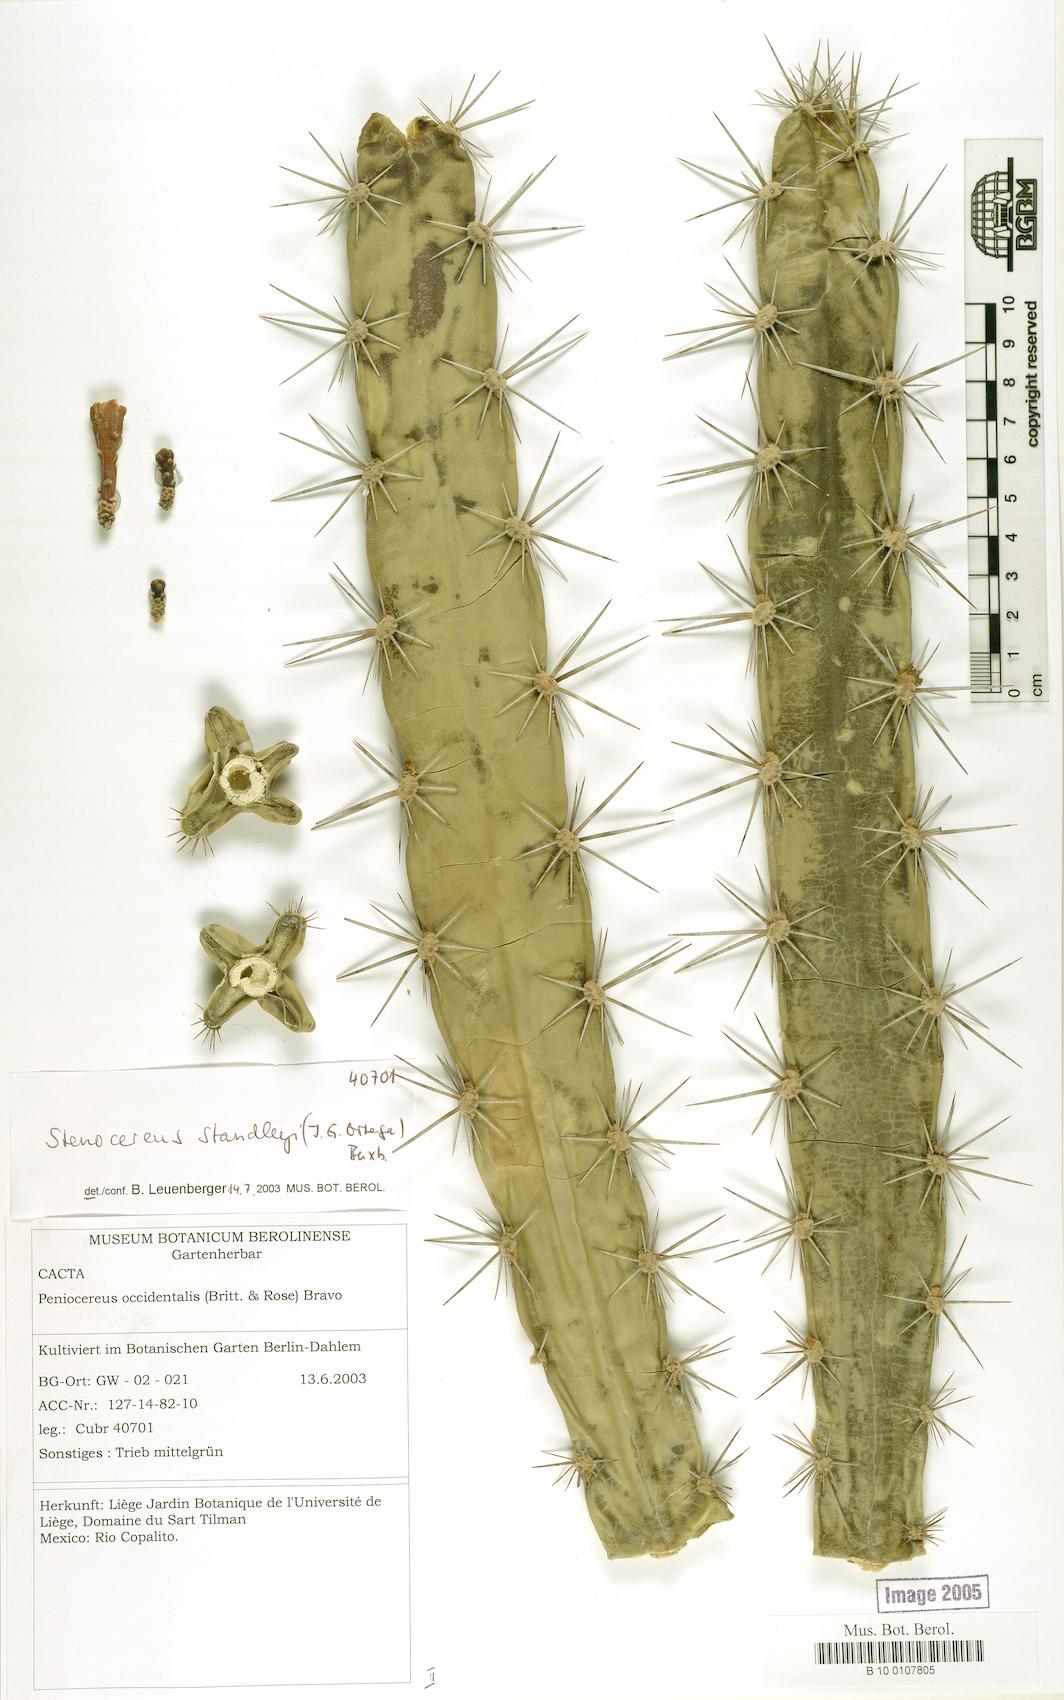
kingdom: Plantae
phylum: Tracheophyta
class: Magnoliopsida
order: Caryophyllales
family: Cactaceae
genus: Stenocereus
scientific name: Stenocereus standleyi
